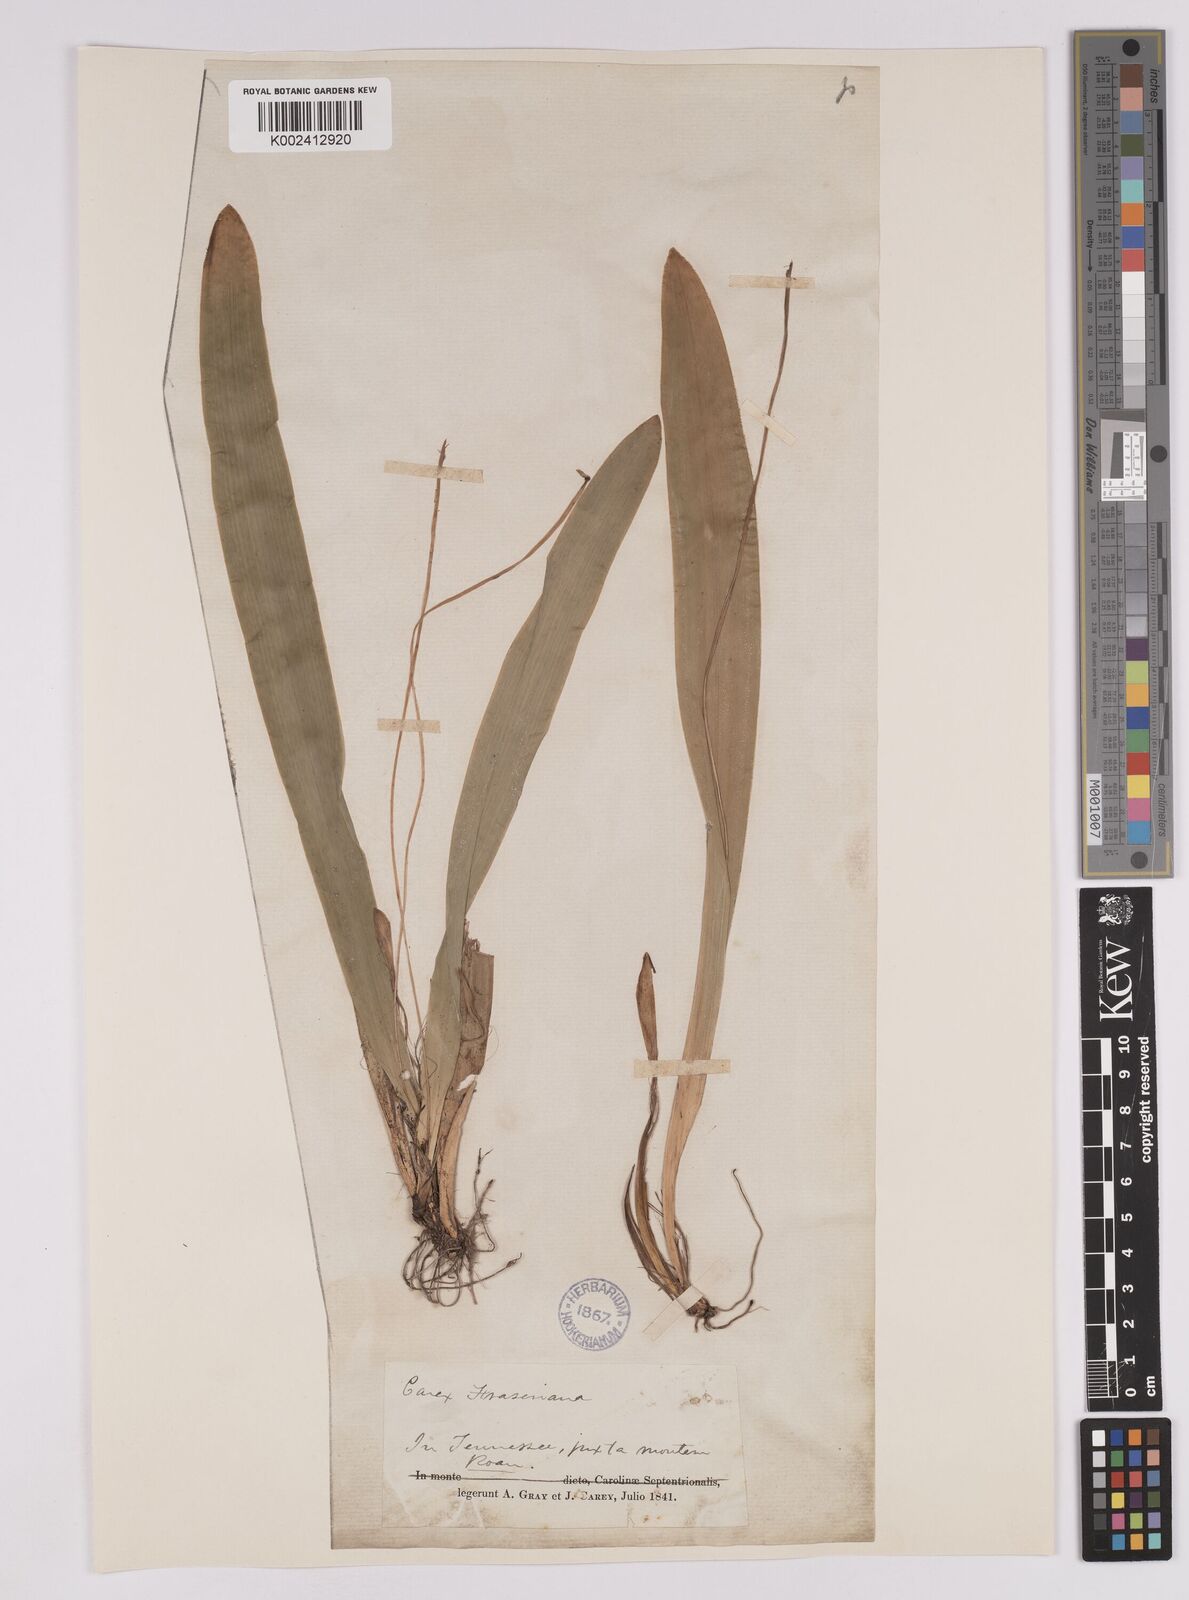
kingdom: Plantae
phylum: Tracheophyta
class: Liliopsida
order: Poales
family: Cyperaceae
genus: Carex
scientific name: Carex fraseriana
